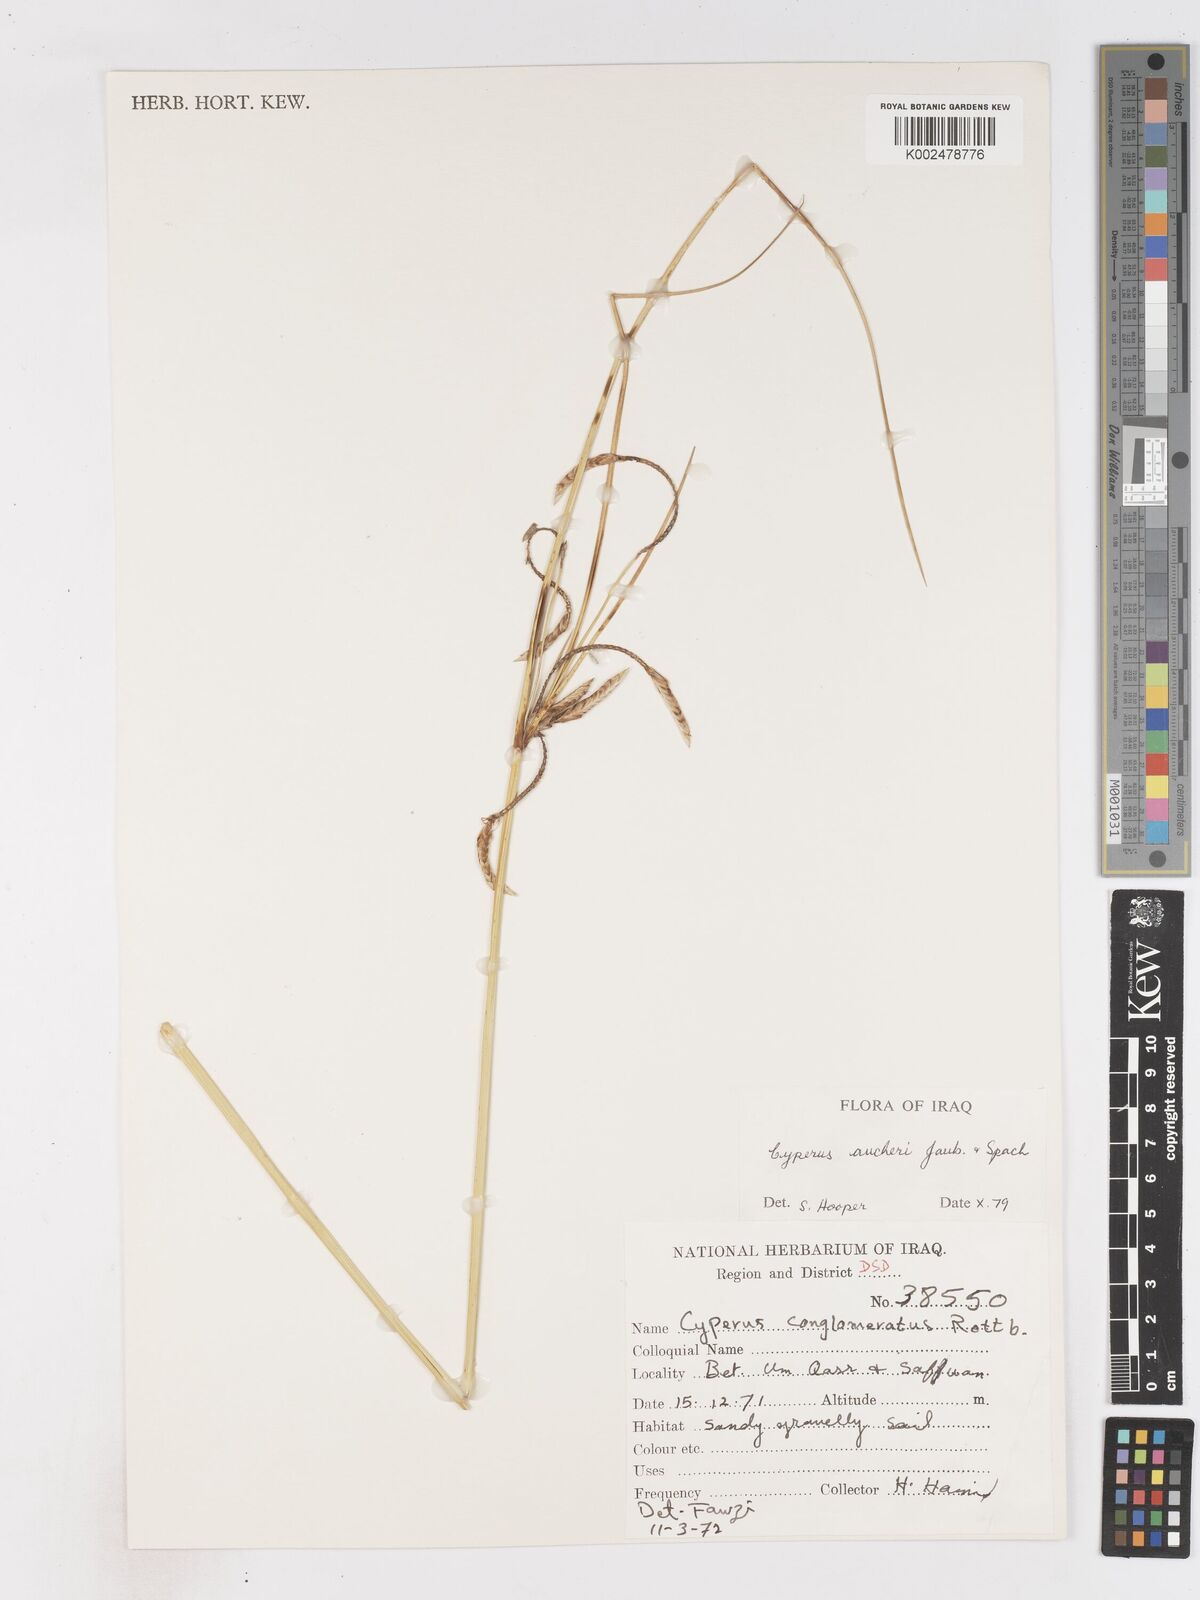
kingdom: Plantae
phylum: Tracheophyta
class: Liliopsida
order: Poales
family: Cyperaceae
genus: Cyperus
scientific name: Cyperus aucheri
